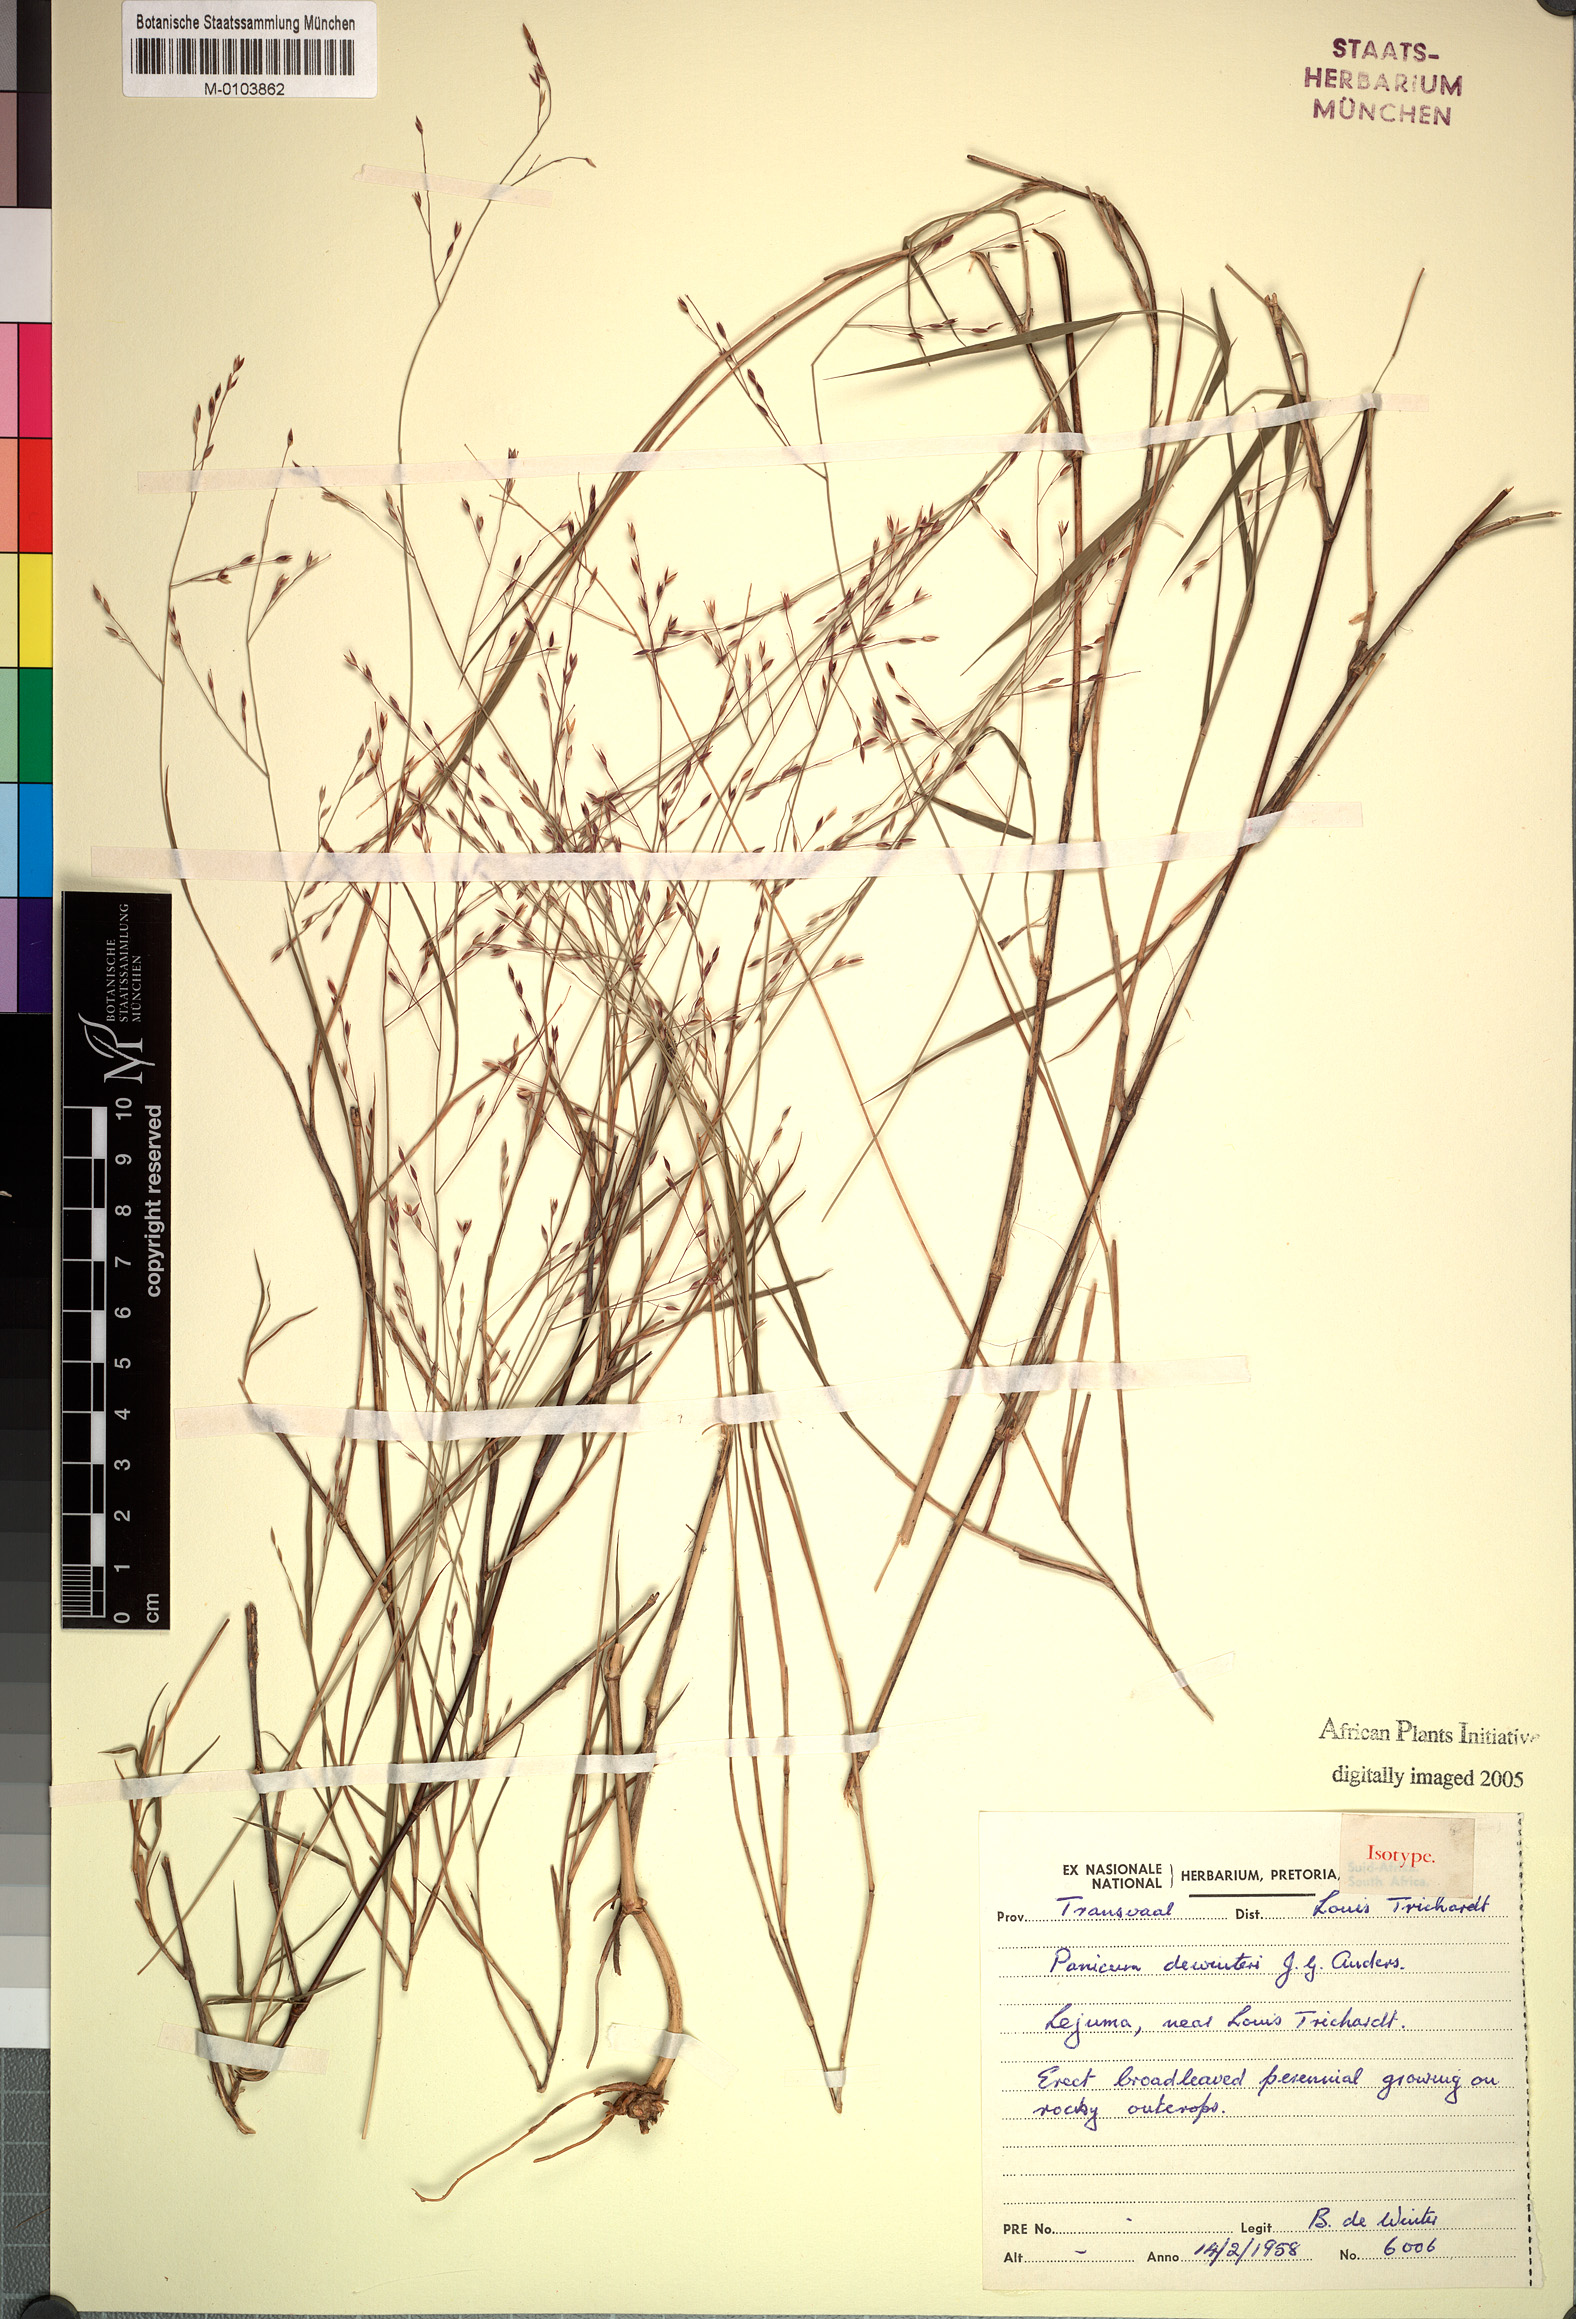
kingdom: Plantae
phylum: Tracheophyta
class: Liliopsida
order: Poales
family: Poaceae
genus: Panicum
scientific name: Panicum dewinteri
